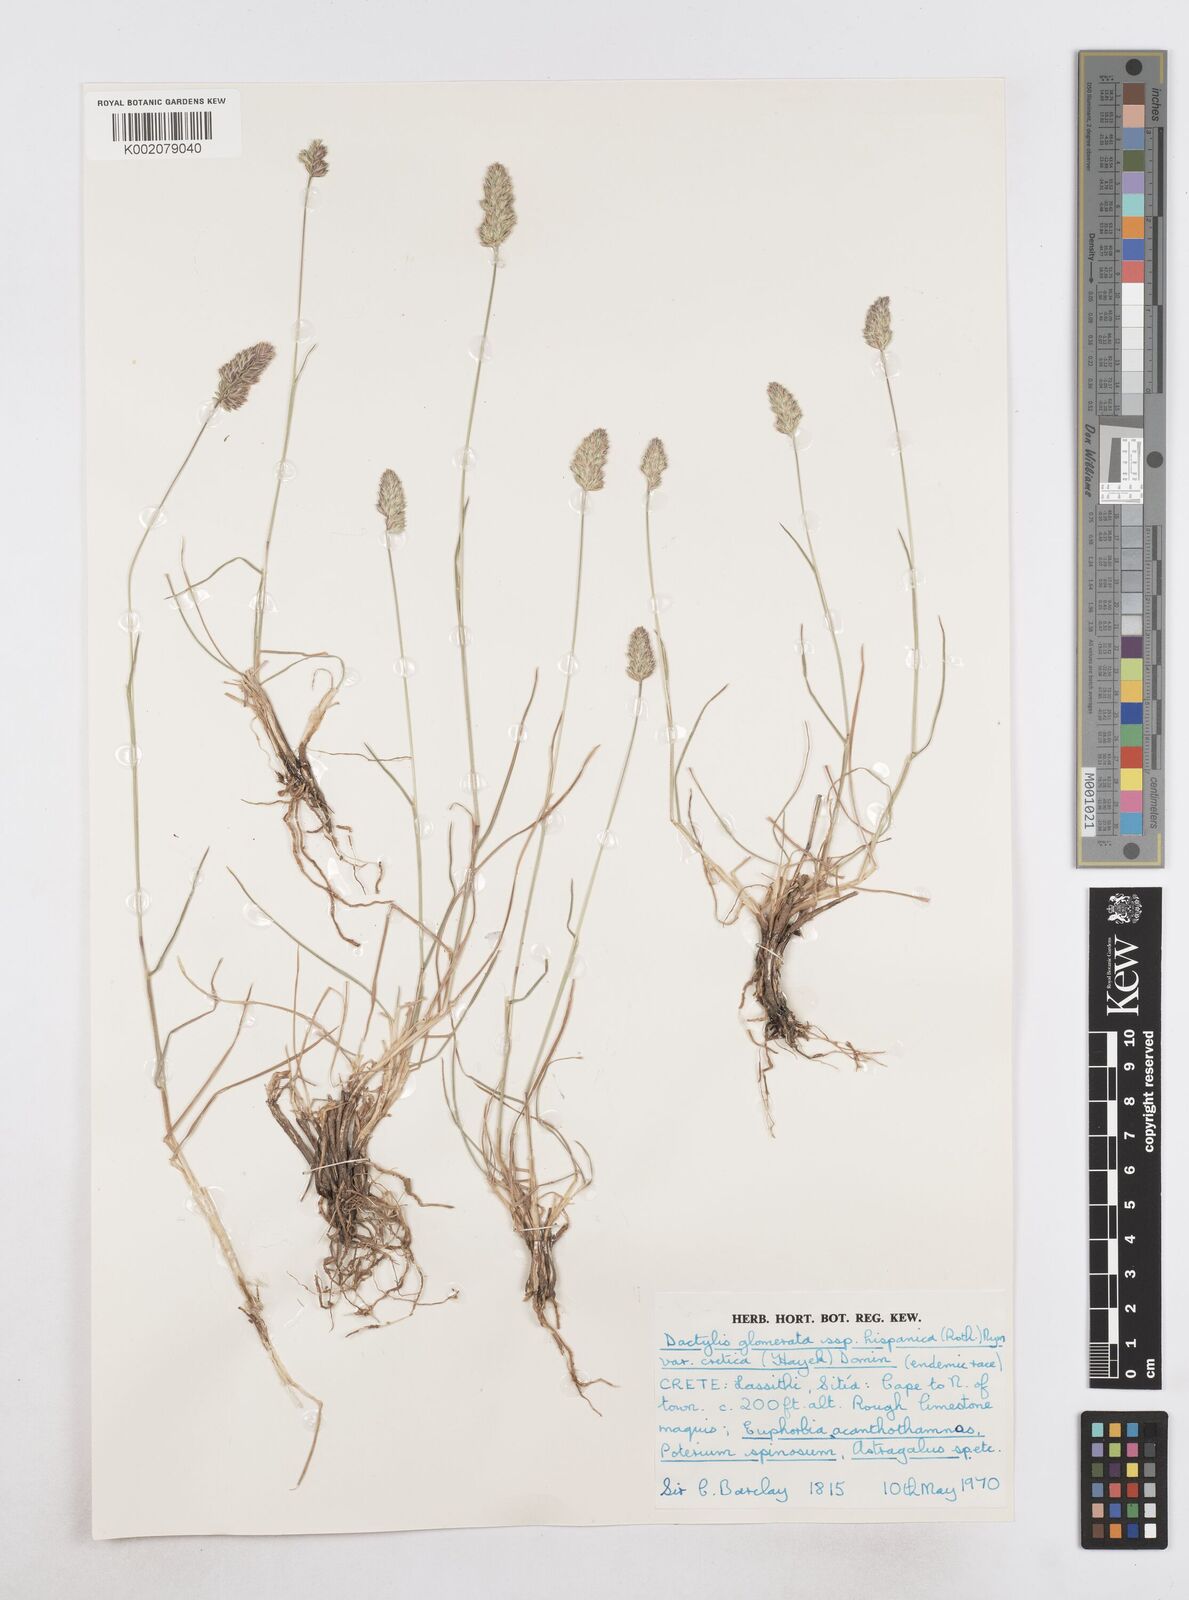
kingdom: Plantae
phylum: Tracheophyta
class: Liliopsida
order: Poales
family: Poaceae
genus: Dactylis
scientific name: Dactylis glomerata
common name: Orchardgrass
